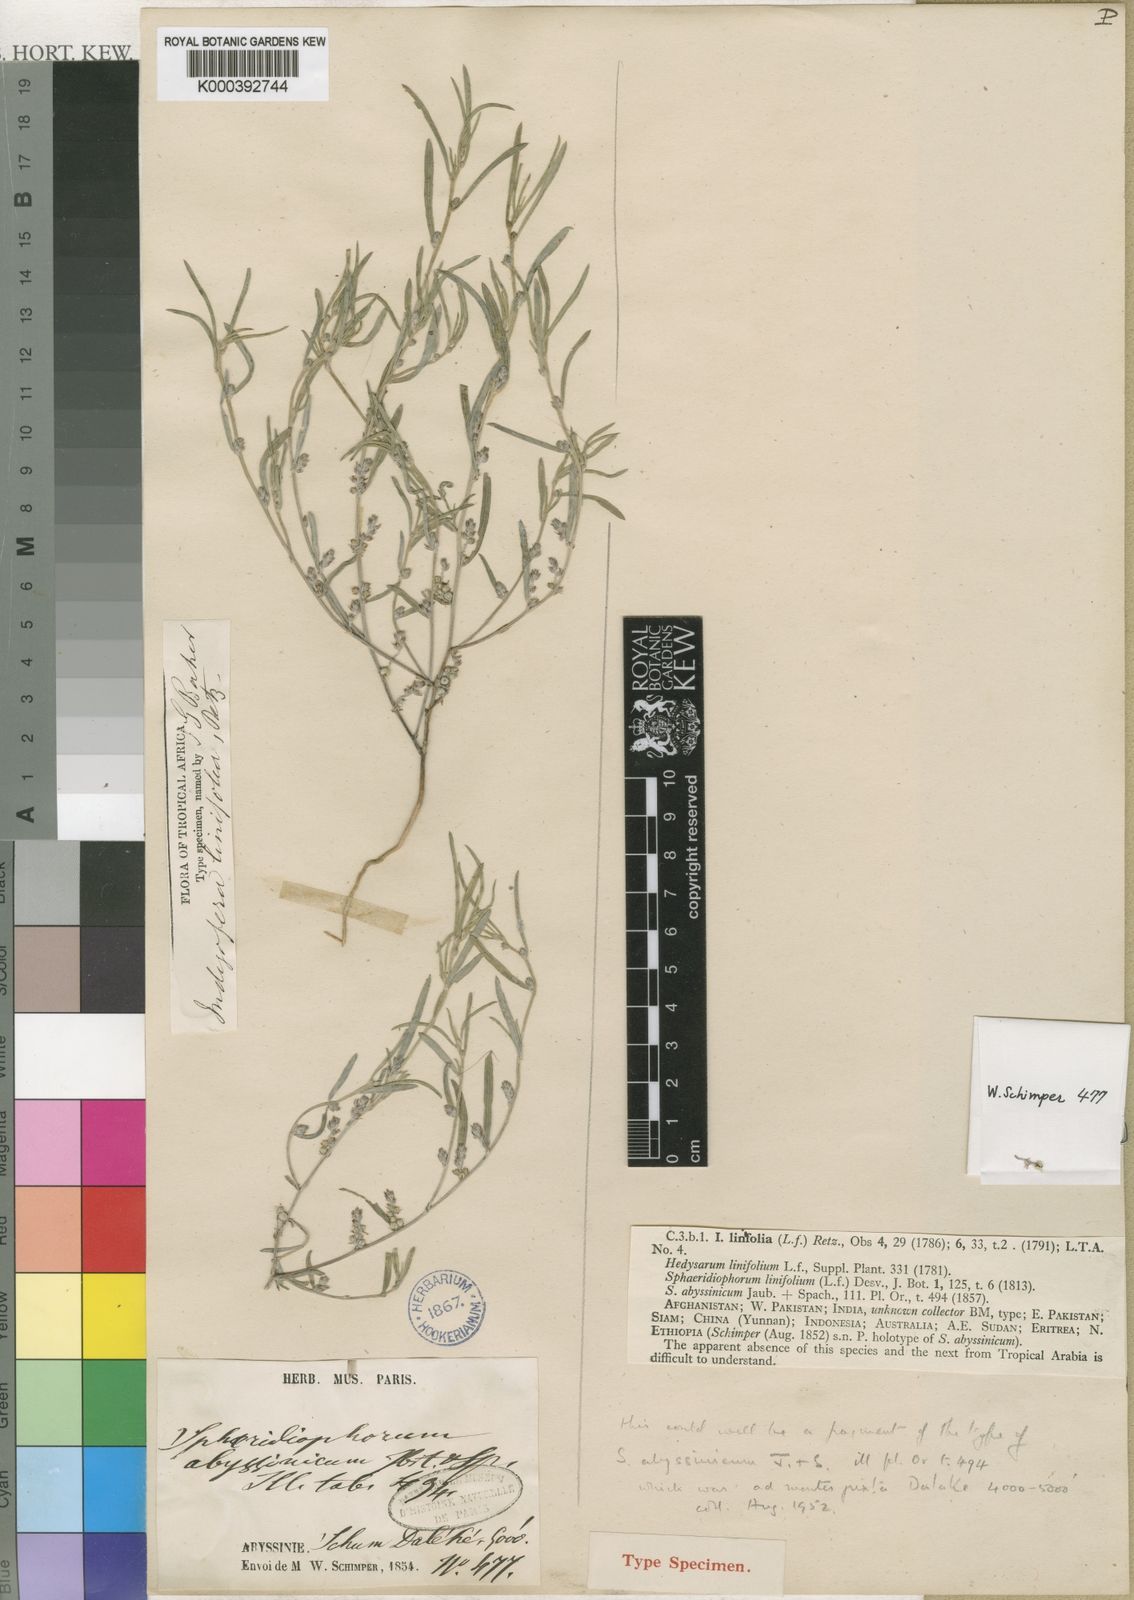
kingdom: Plantae
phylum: Tracheophyta
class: Magnoliopsida
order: Fabales
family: Fabaceae
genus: Indigofera
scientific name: Indigofera linifolia
